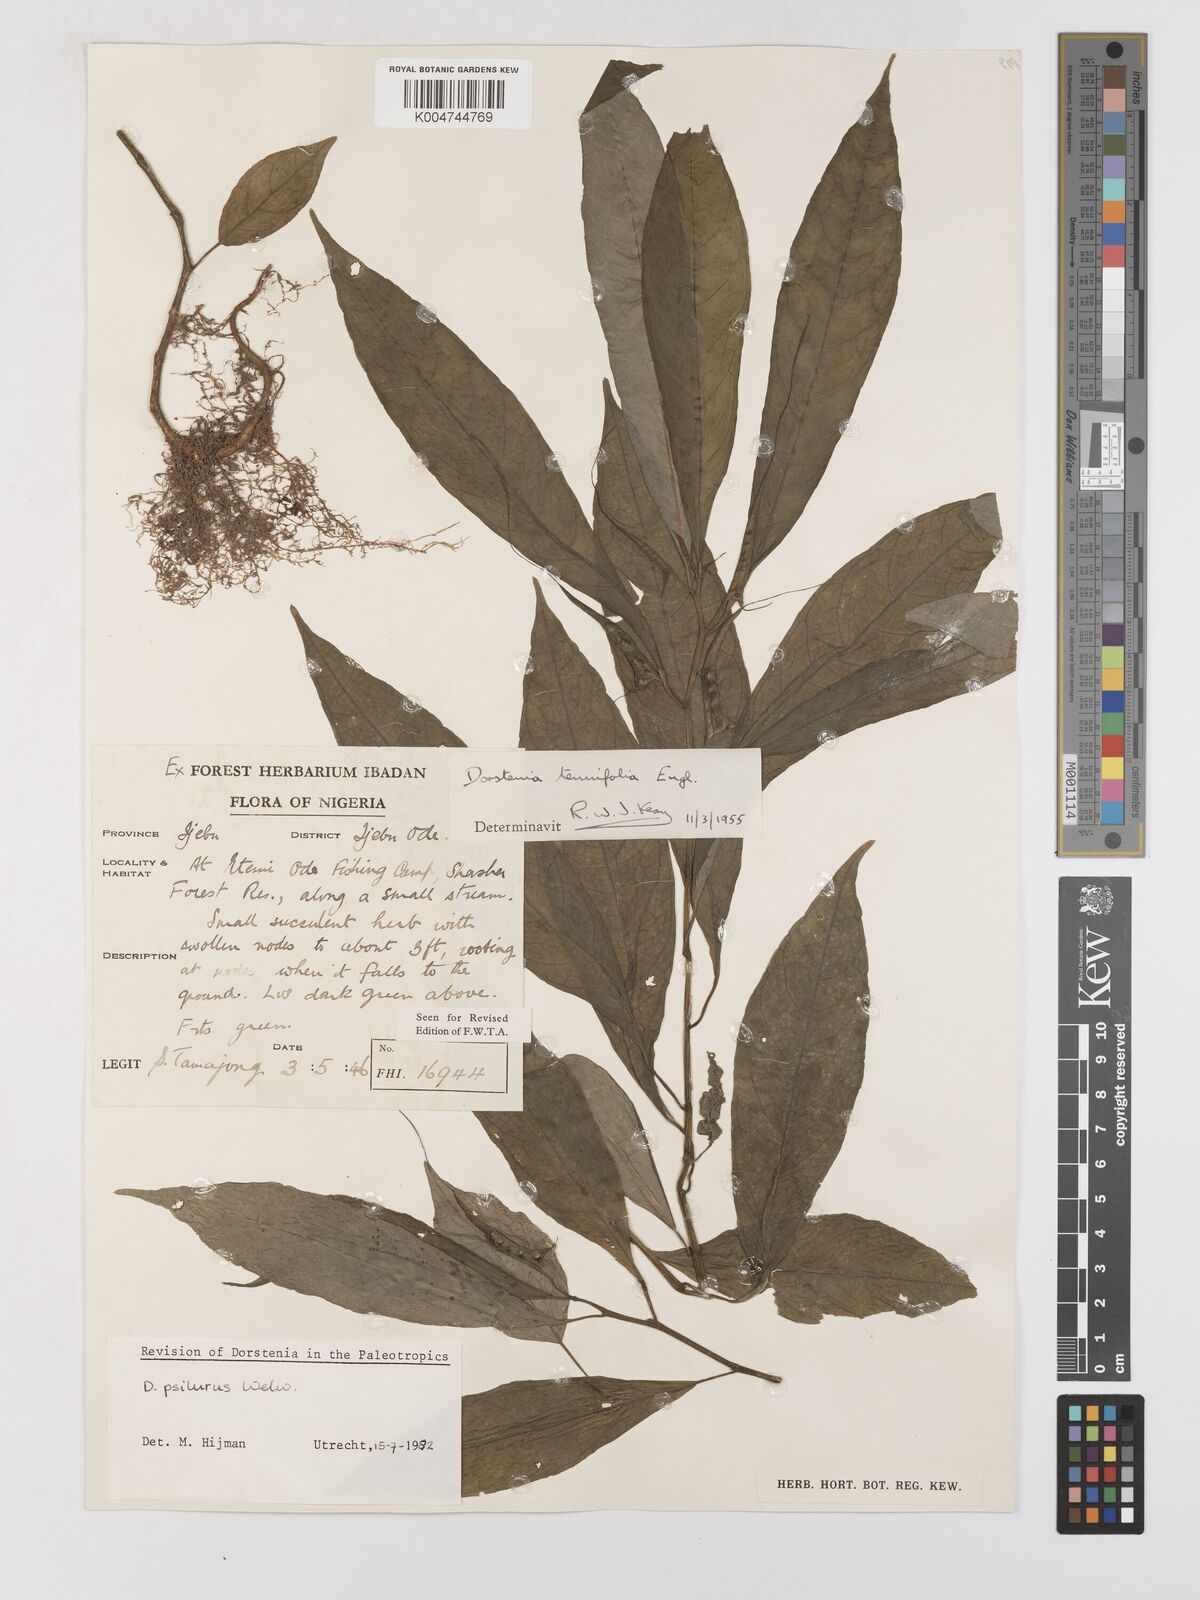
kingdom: Plantae
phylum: Tracheophyta
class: Magnoliopsida
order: Rosales
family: Moraceae
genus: Dorstenia
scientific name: Dorstenia psilurus
